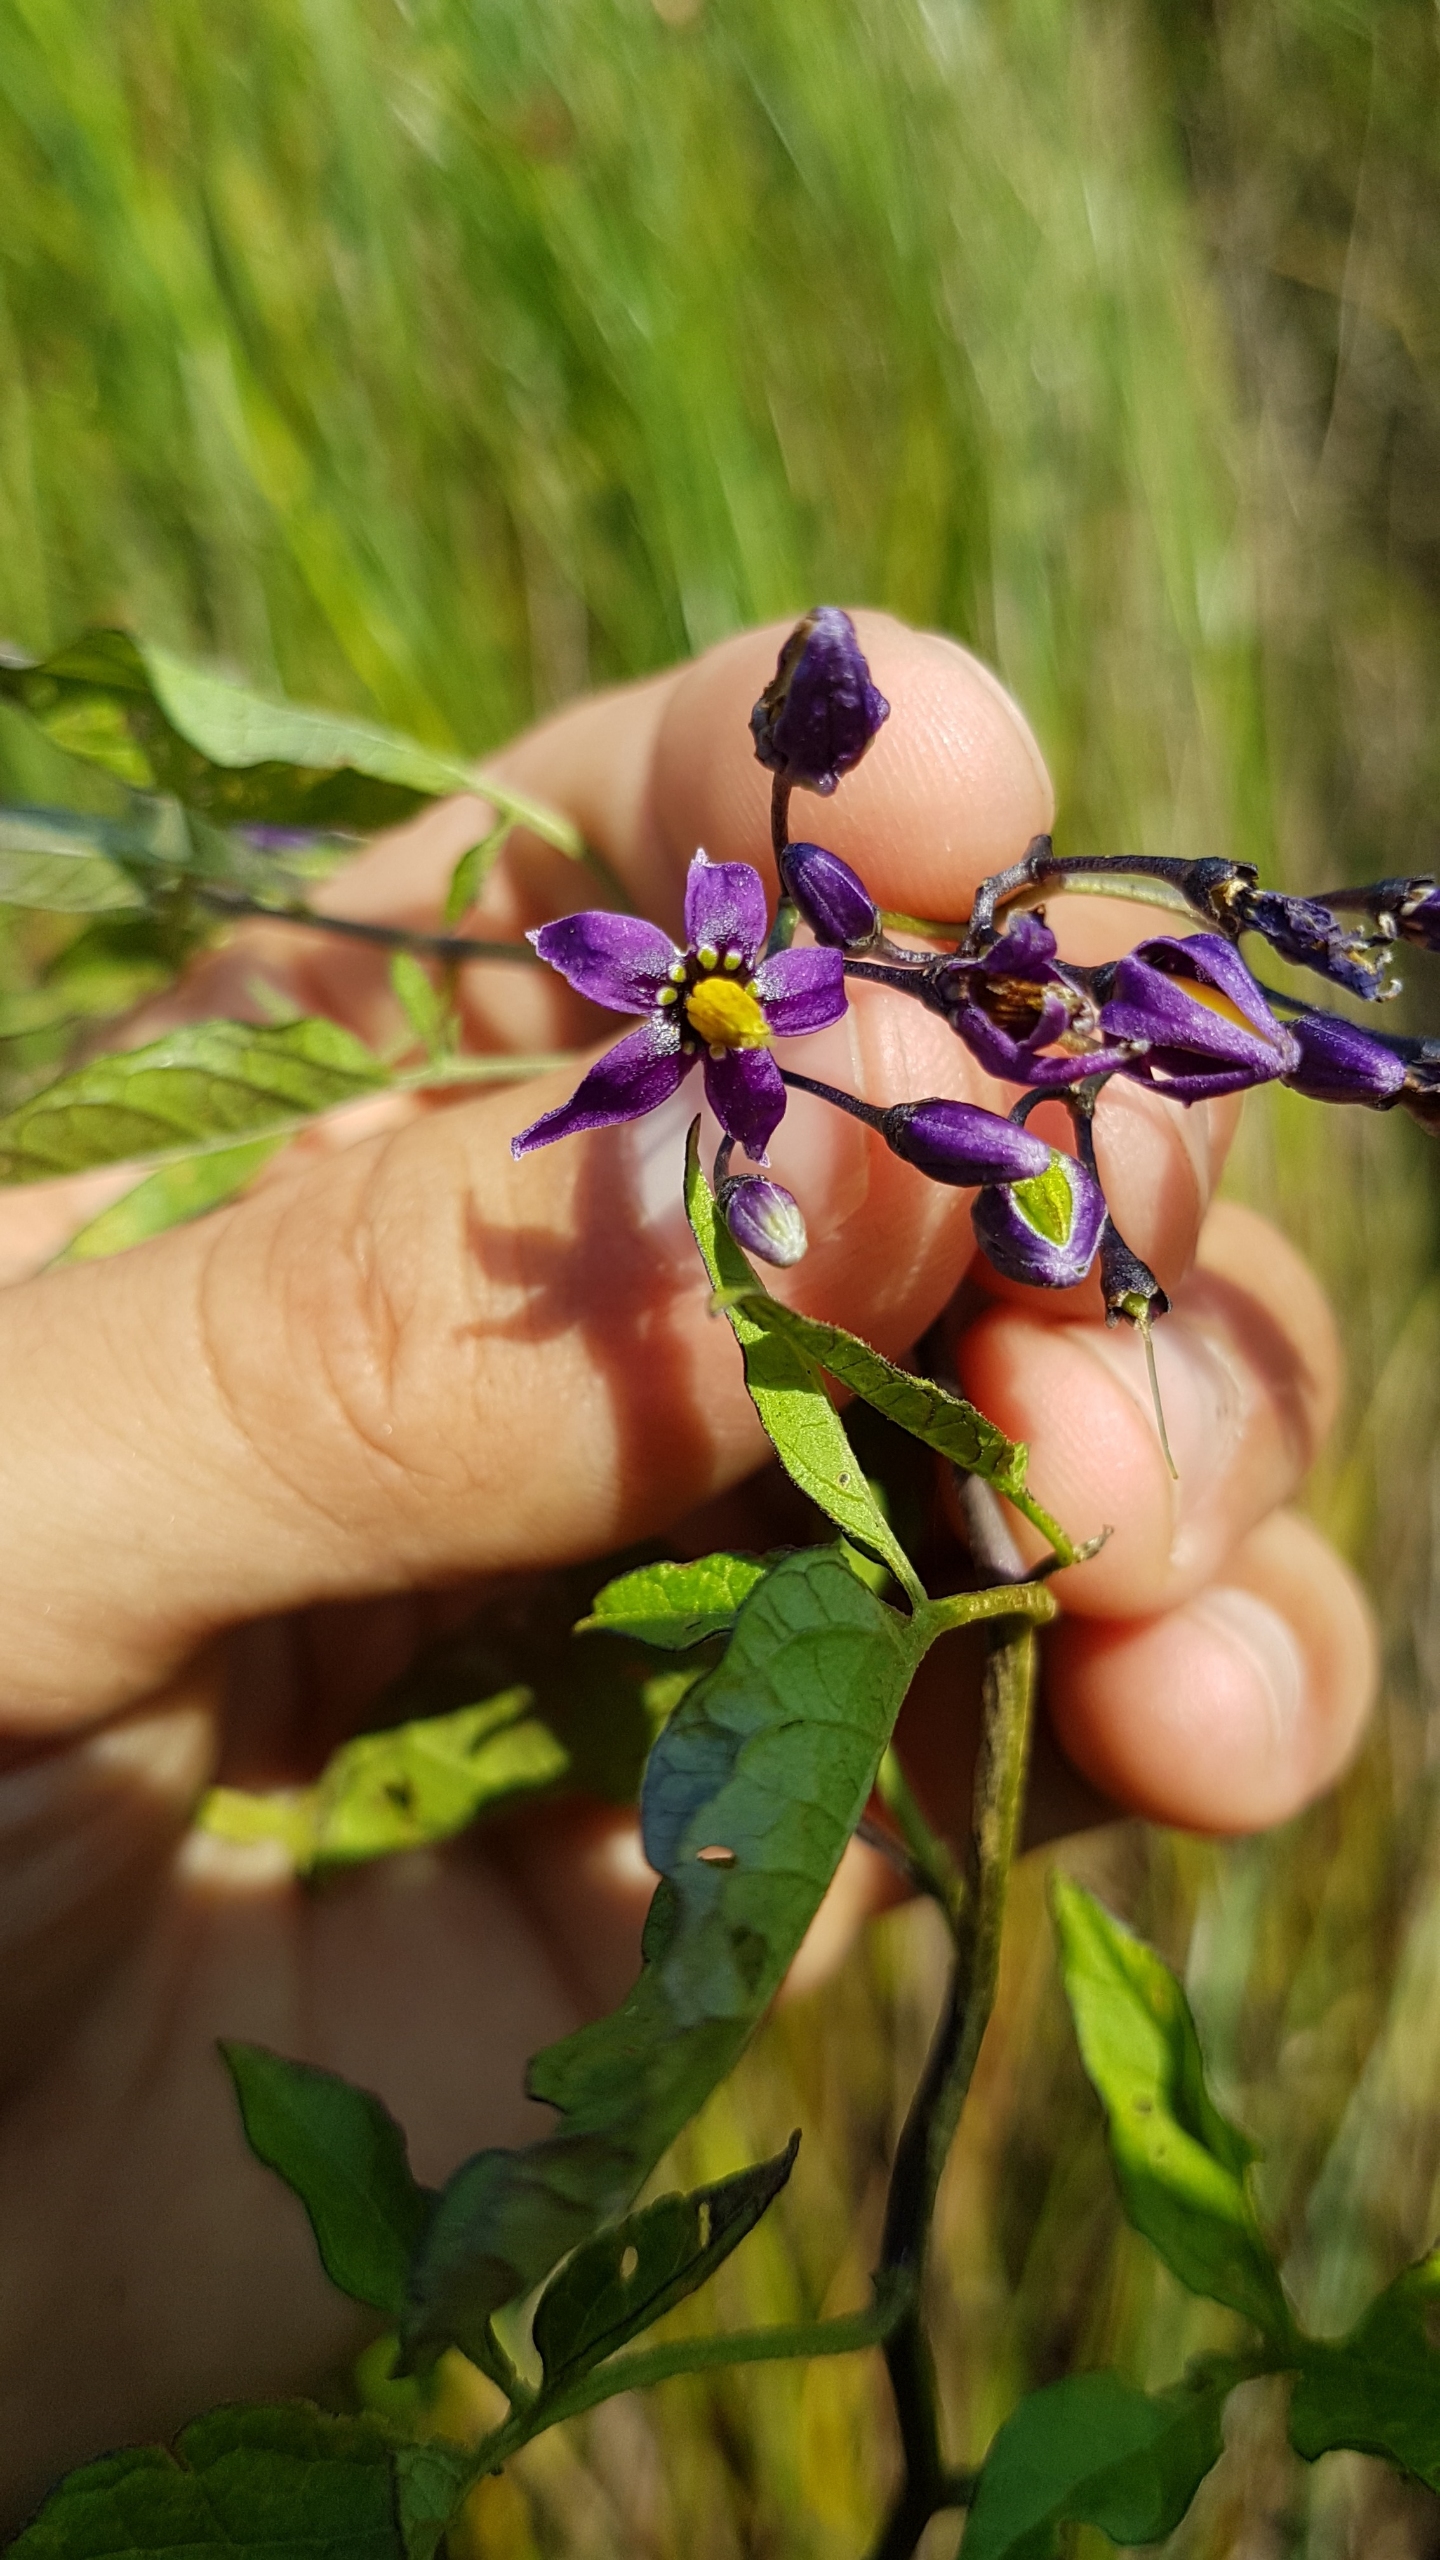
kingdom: Plantae
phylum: Tracheophyta
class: Magnoliopsida
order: Solanales
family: Solanaceae
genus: Solanum
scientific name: Solanum dulcamara
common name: Bittersød natskygge
